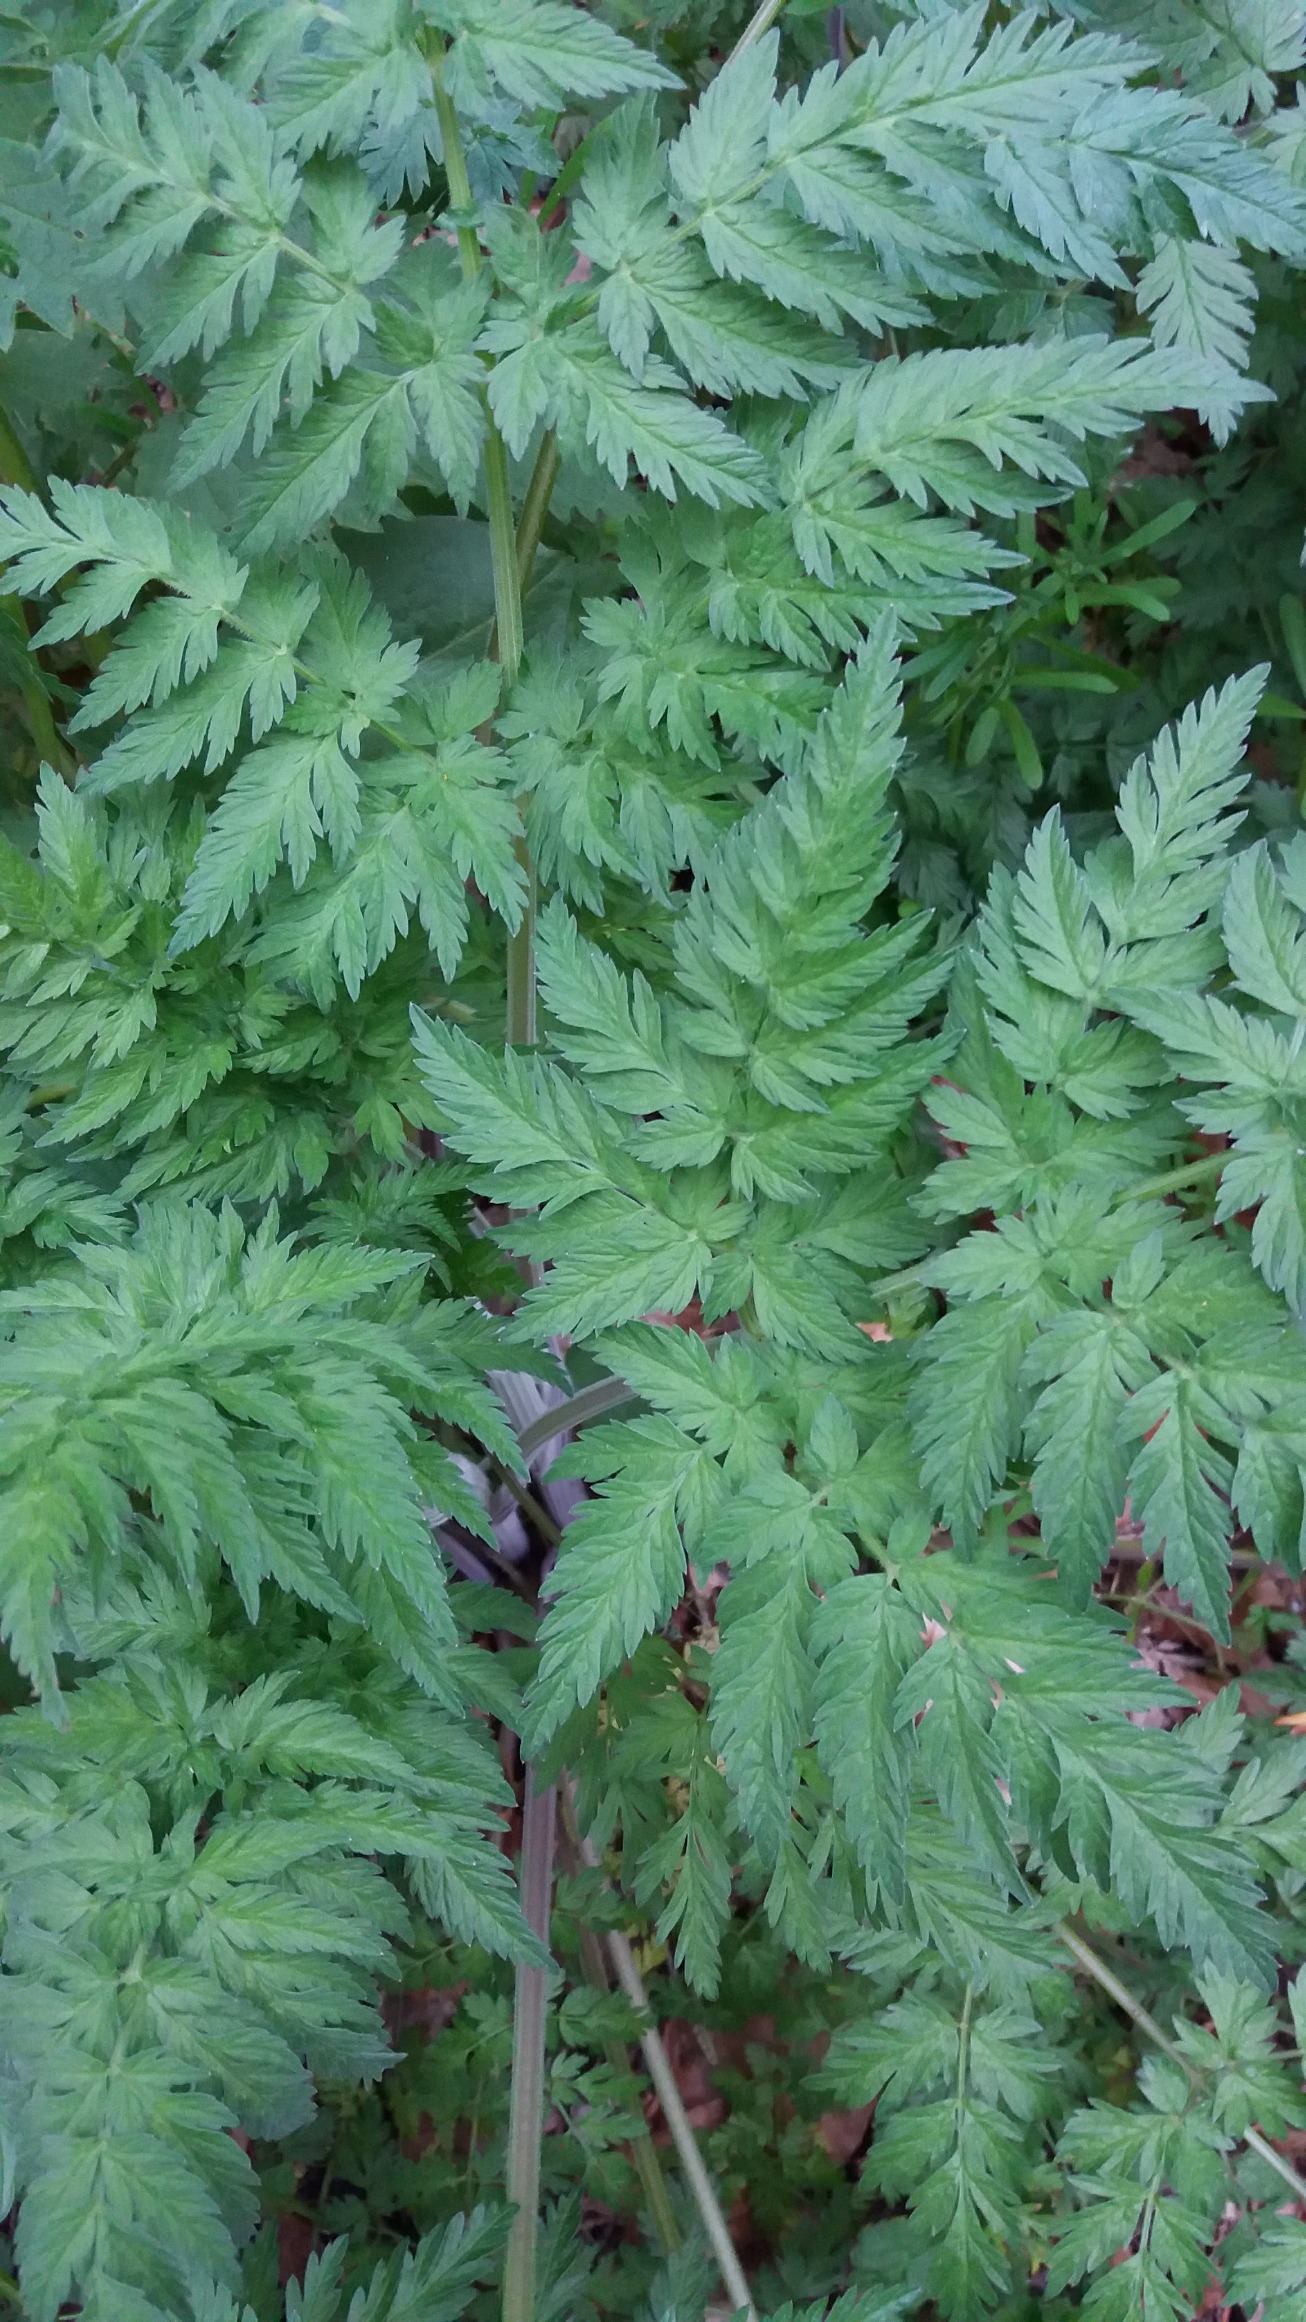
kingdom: Plantae
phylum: Tracheophyta
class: Magnoliopsida
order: Apiales
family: Apiaceae
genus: Anthriscus
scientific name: Anthriscus sylvestris
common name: Vild kørvel
